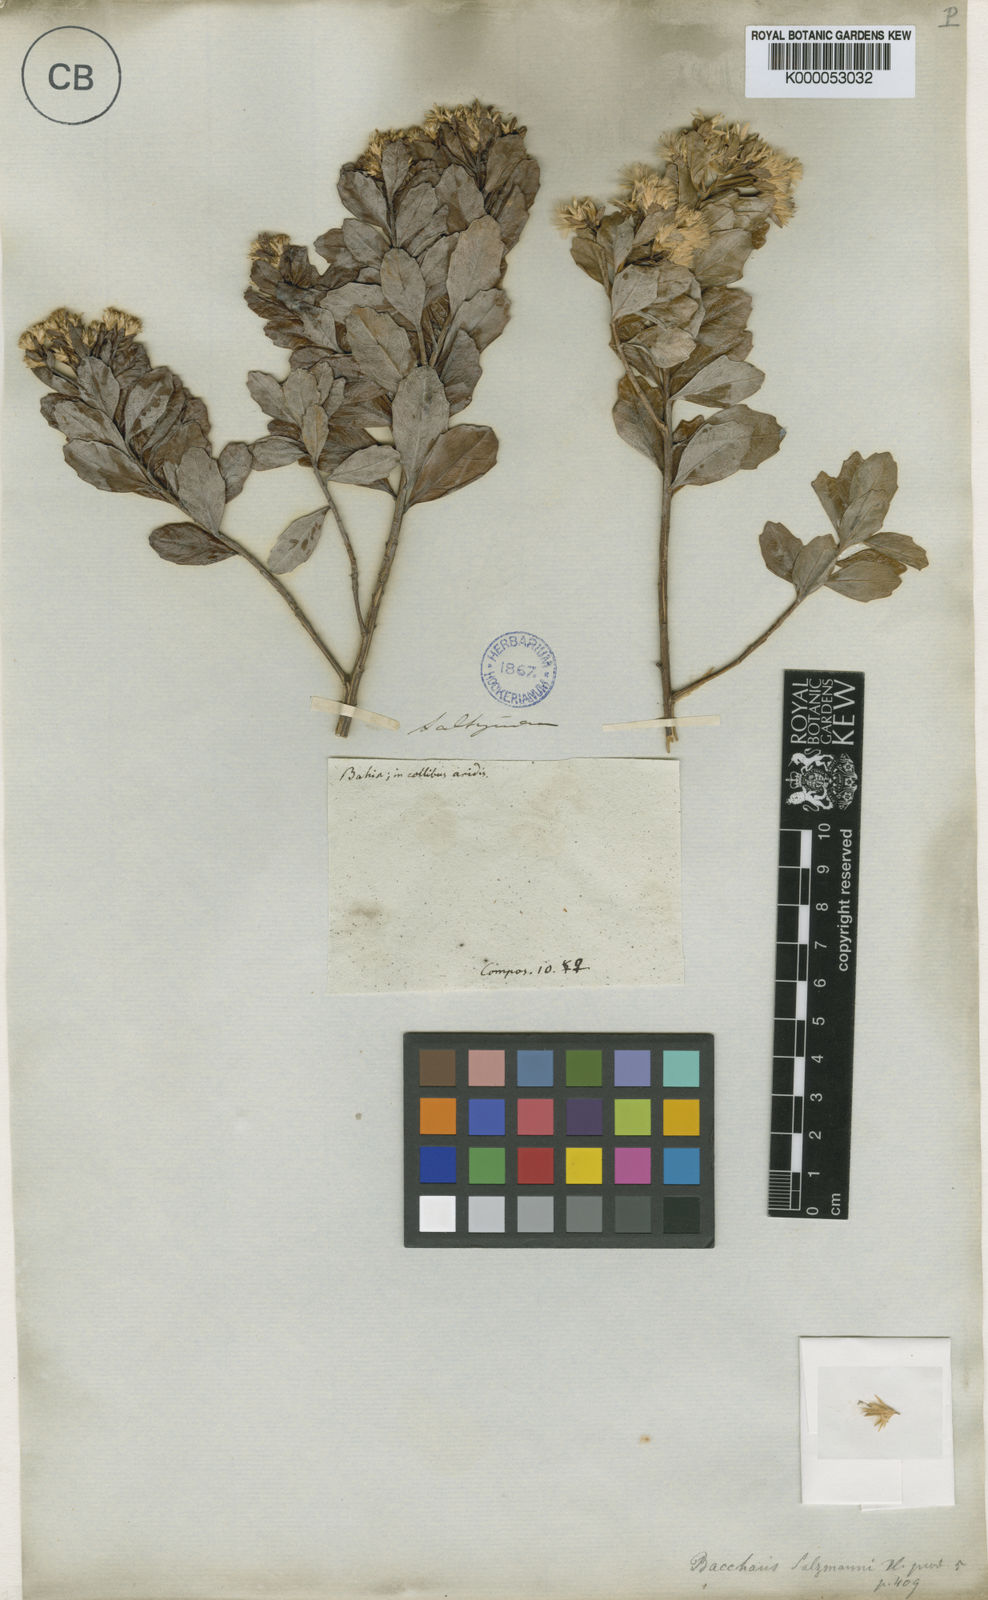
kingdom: Plantae
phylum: Tracheophyta
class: Magnoliopsida
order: Asterales
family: Asteraceae
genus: Baccharis
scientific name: Baccharis retusa
